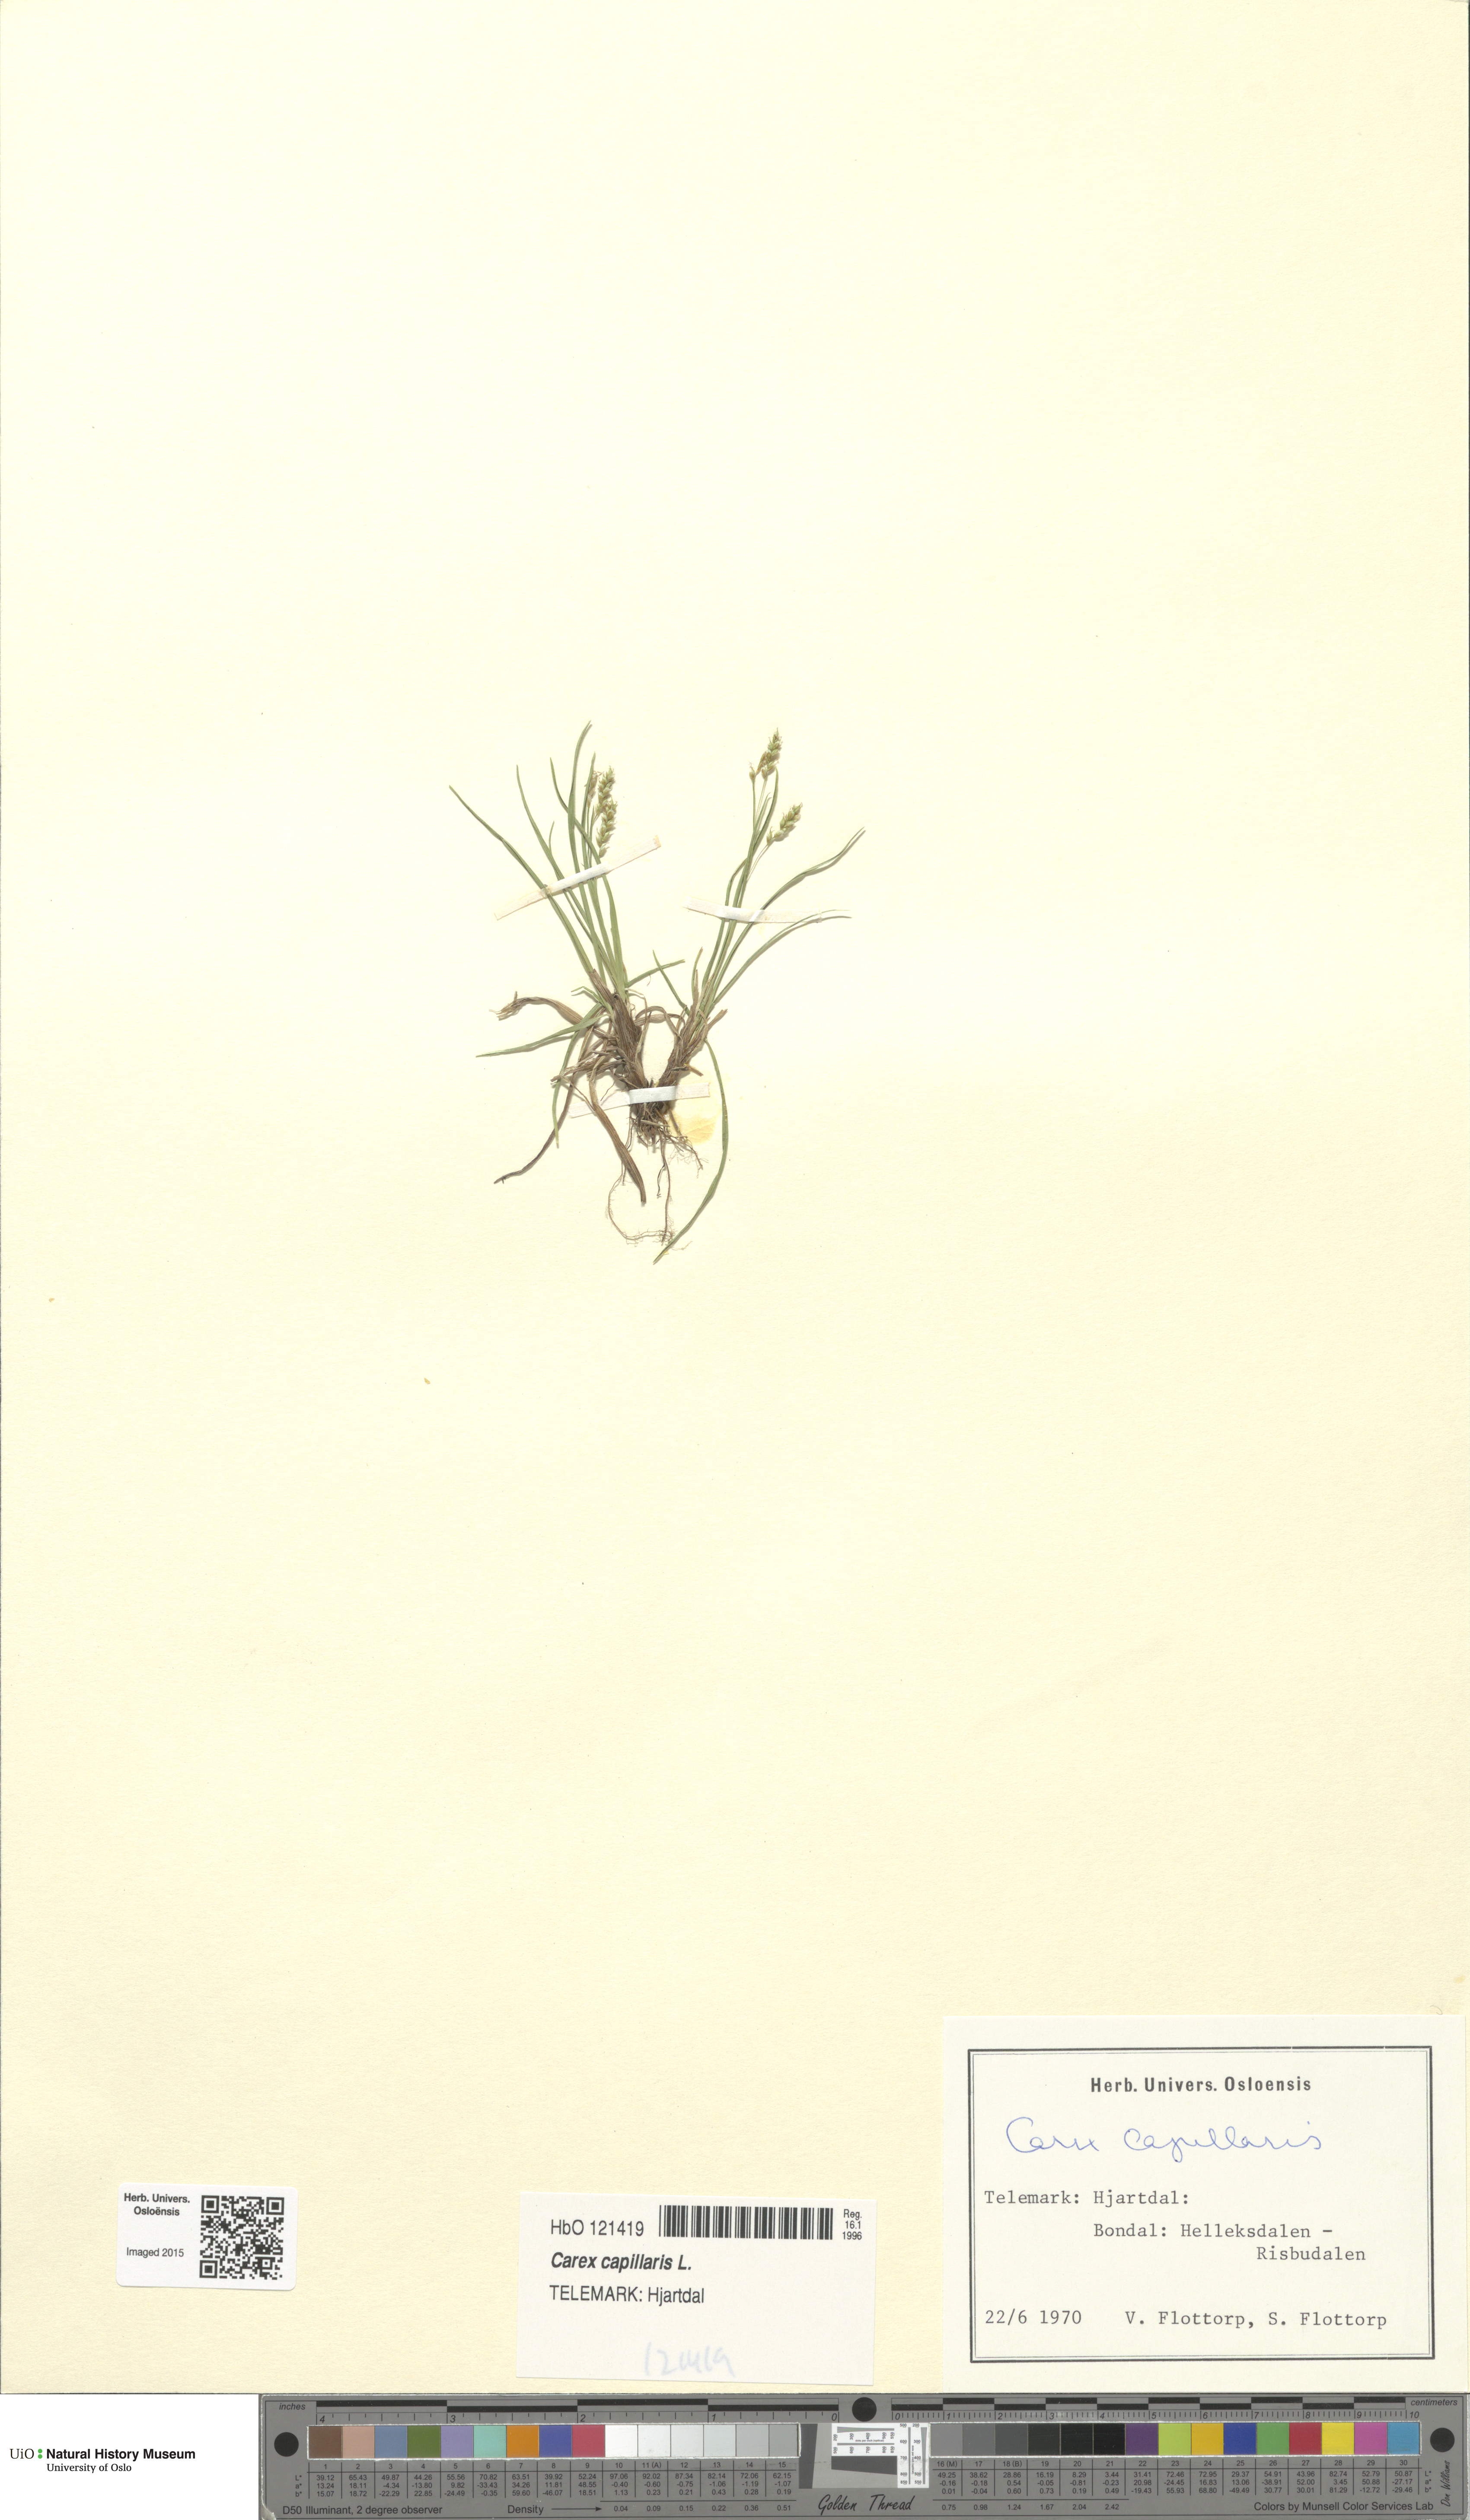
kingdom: Plantae
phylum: Tracheophyta
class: Liliopsida
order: Poales
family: Cyperaceae
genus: Carex
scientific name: Carex capillaris
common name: Hair sedge
